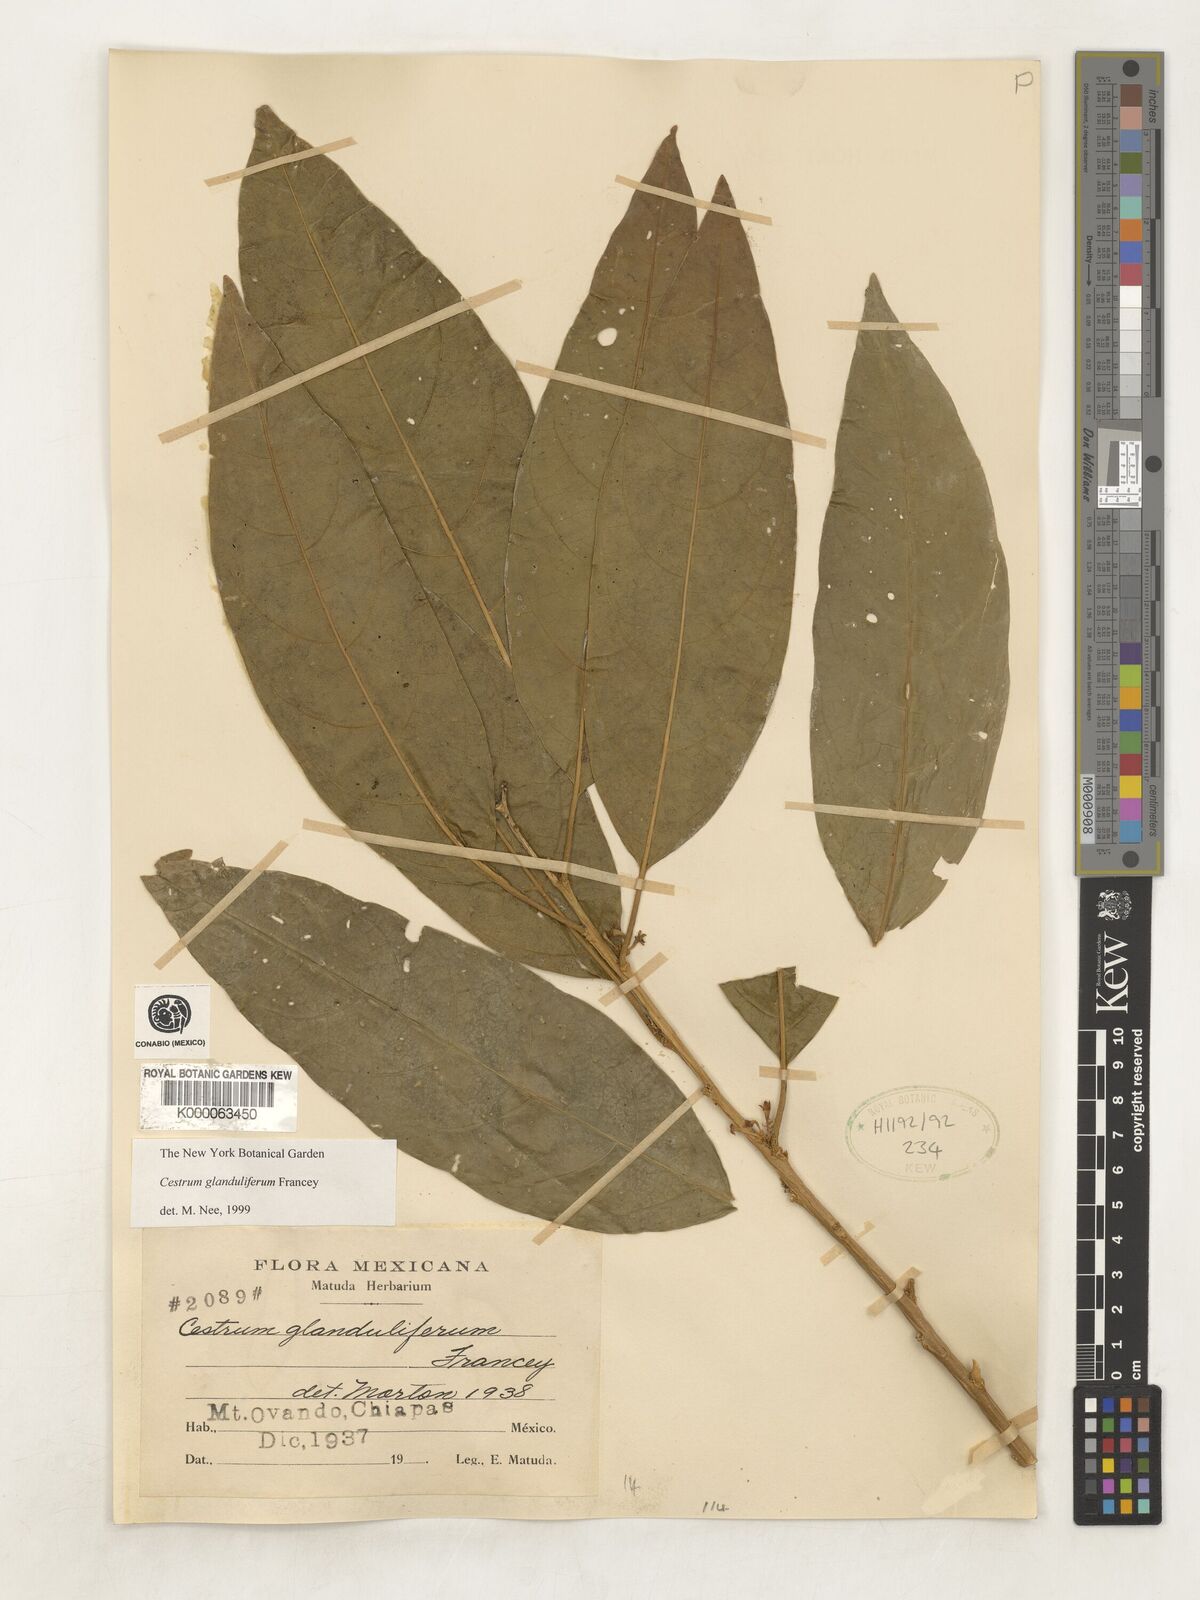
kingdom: Plantae
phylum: Tracheophyta
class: Magnoliopsida
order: Solanales
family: Solanaceae
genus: Cestrum
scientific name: Cestrum glanduliferum
